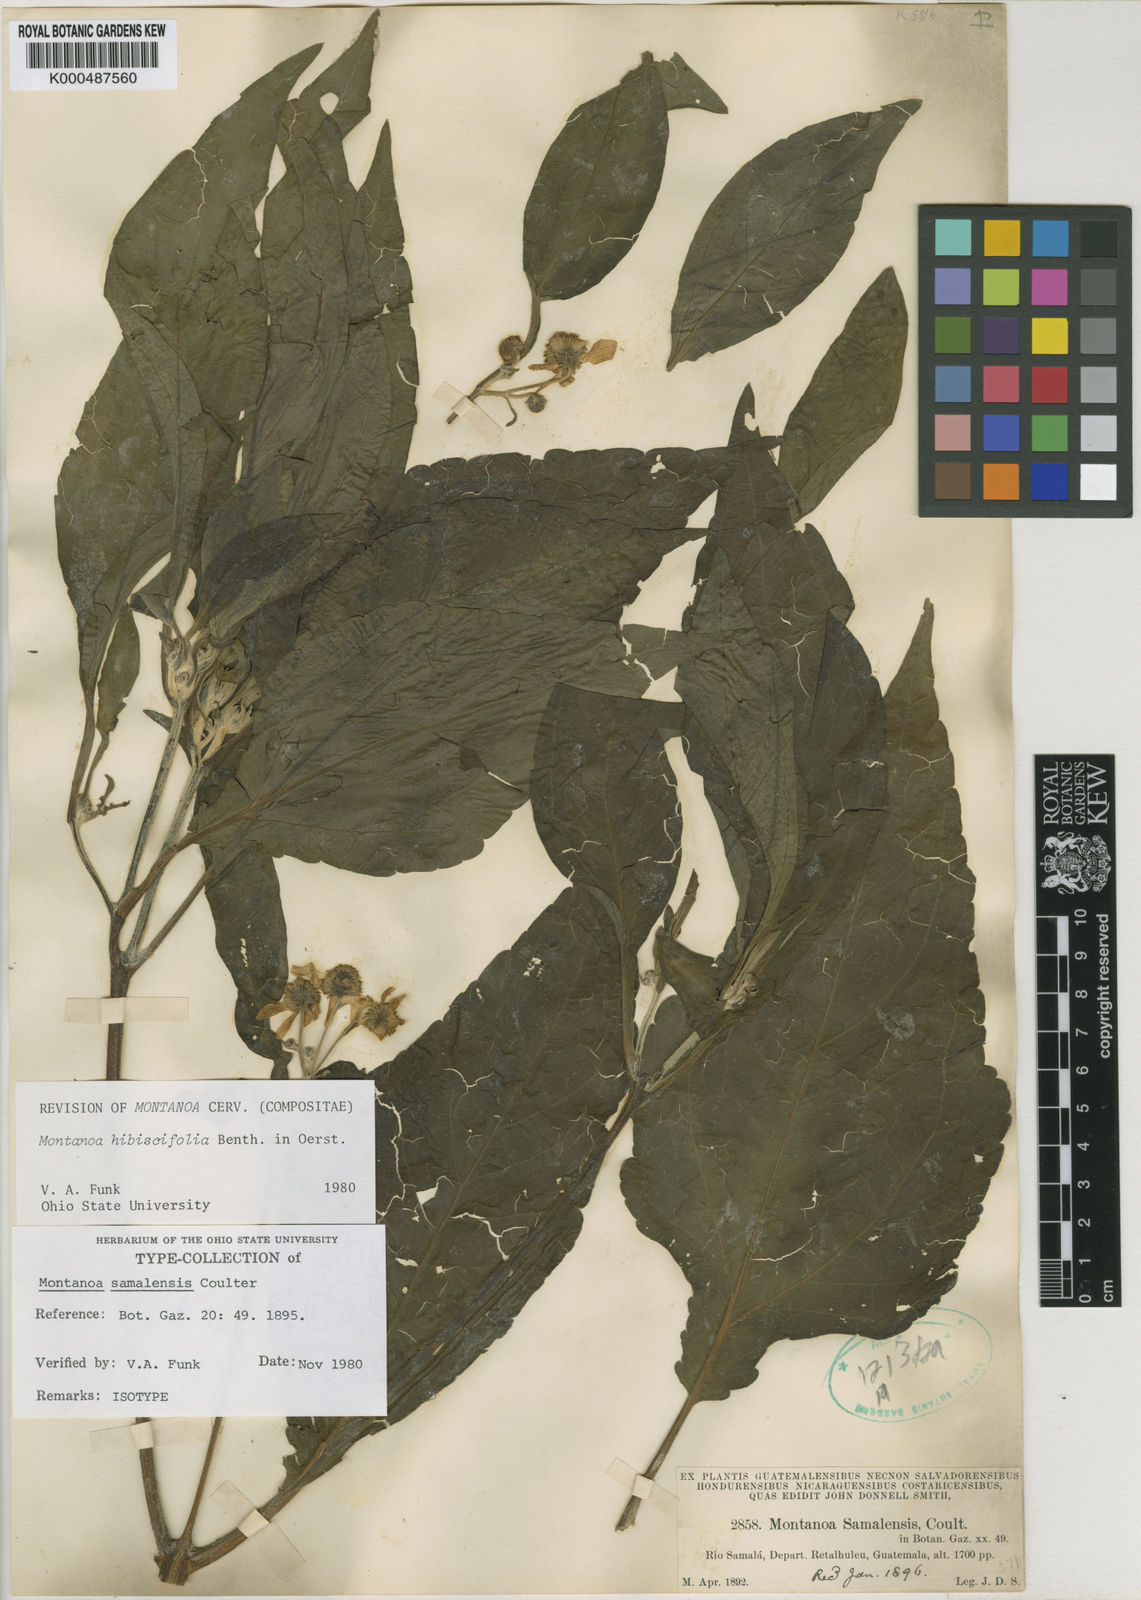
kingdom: Plantae
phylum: Tracheophyta
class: Magnoliopsida
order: Asterales
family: Asteraceae
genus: Montanoa
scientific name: Montanoa hibiscifolia
